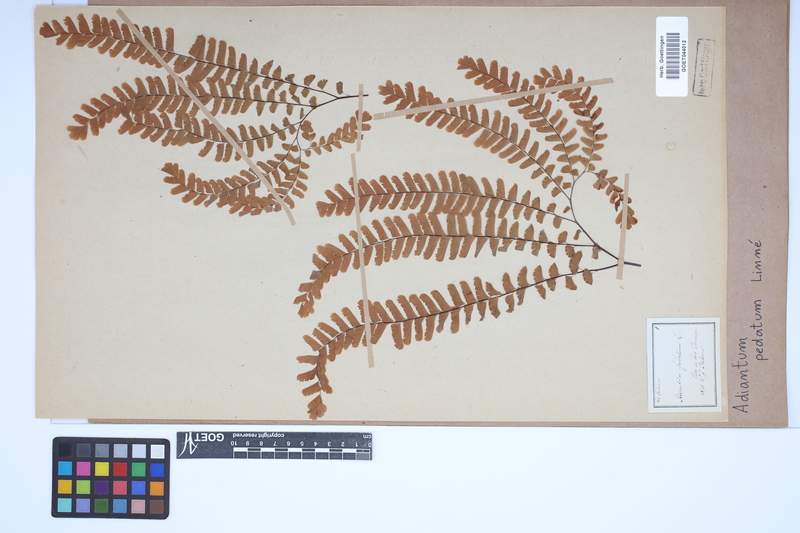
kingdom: Plantae
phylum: Tracheophyta
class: Polypodiopsida
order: Polypodiales
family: Pteridaceae
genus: Adiantum
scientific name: Adiantum pedatum
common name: Five-finger fern
